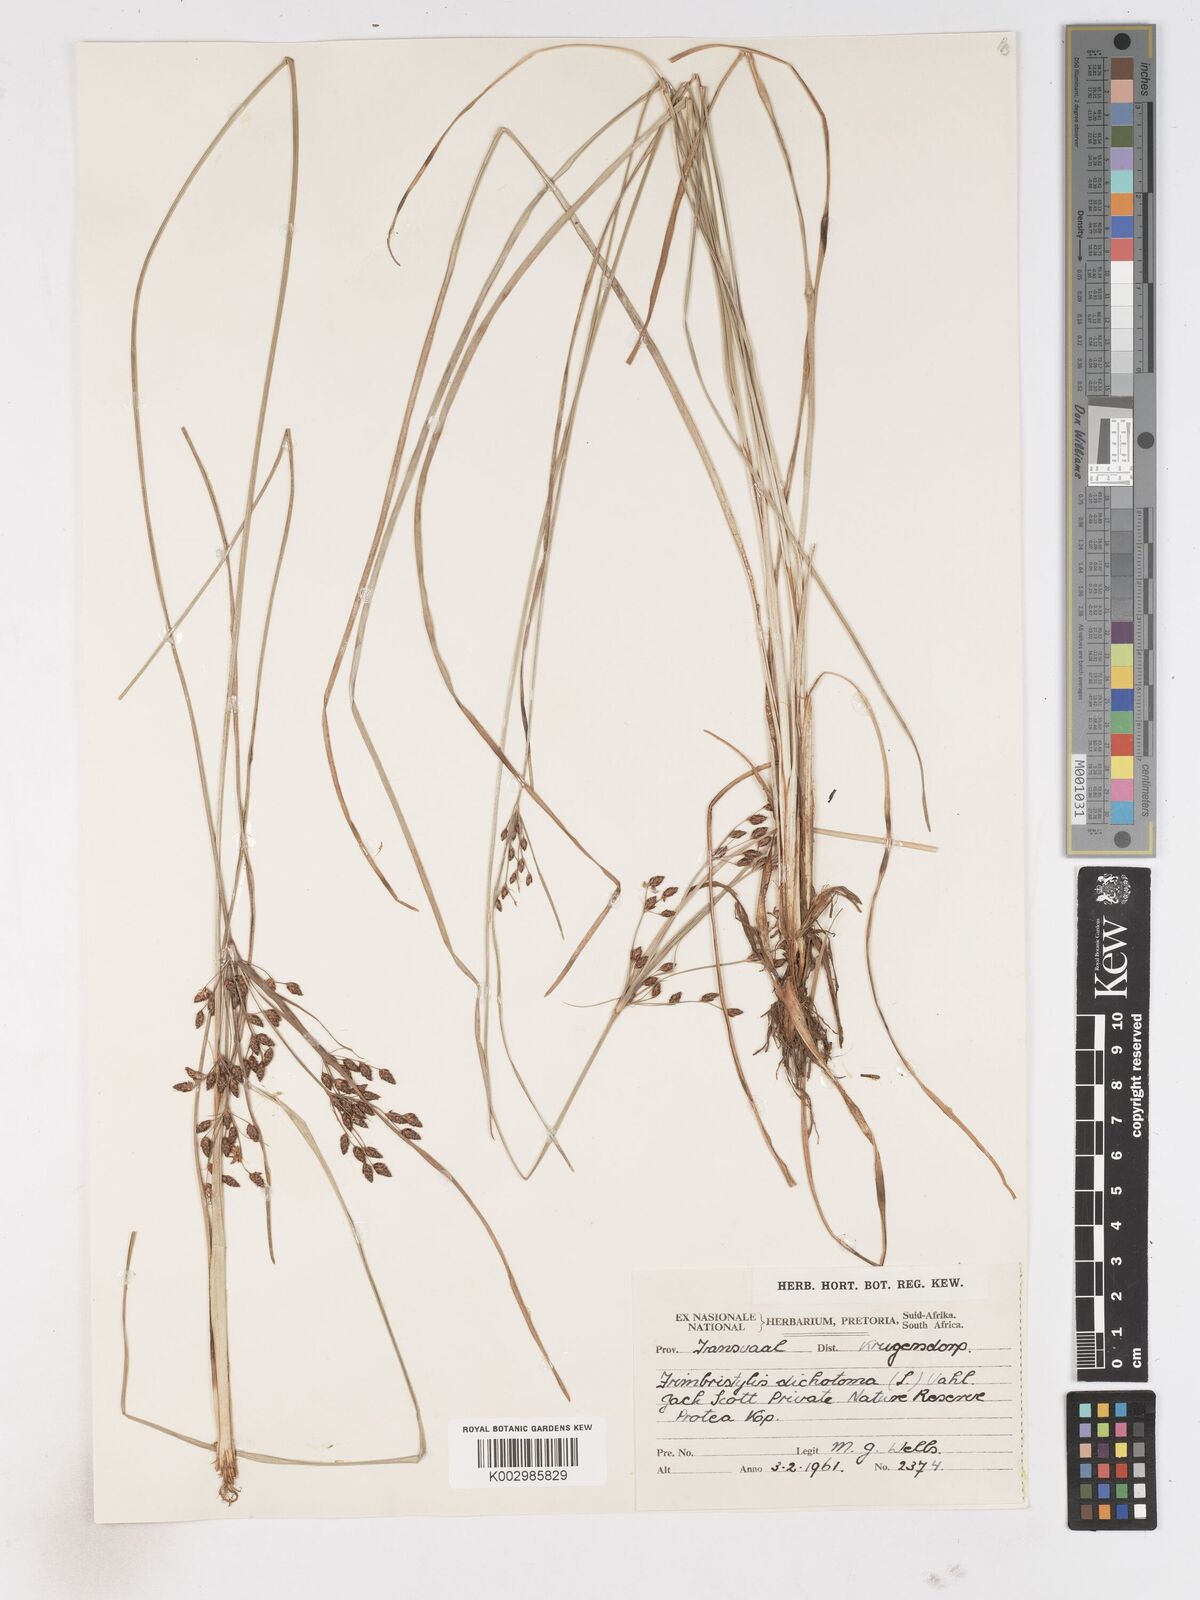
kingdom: Plantae
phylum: Tracheophyta
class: Liliopsida
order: Poales
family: Cyperaceae
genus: Fimbristylis
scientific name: Fimbristylis dichotoma
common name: Forked fimbry
